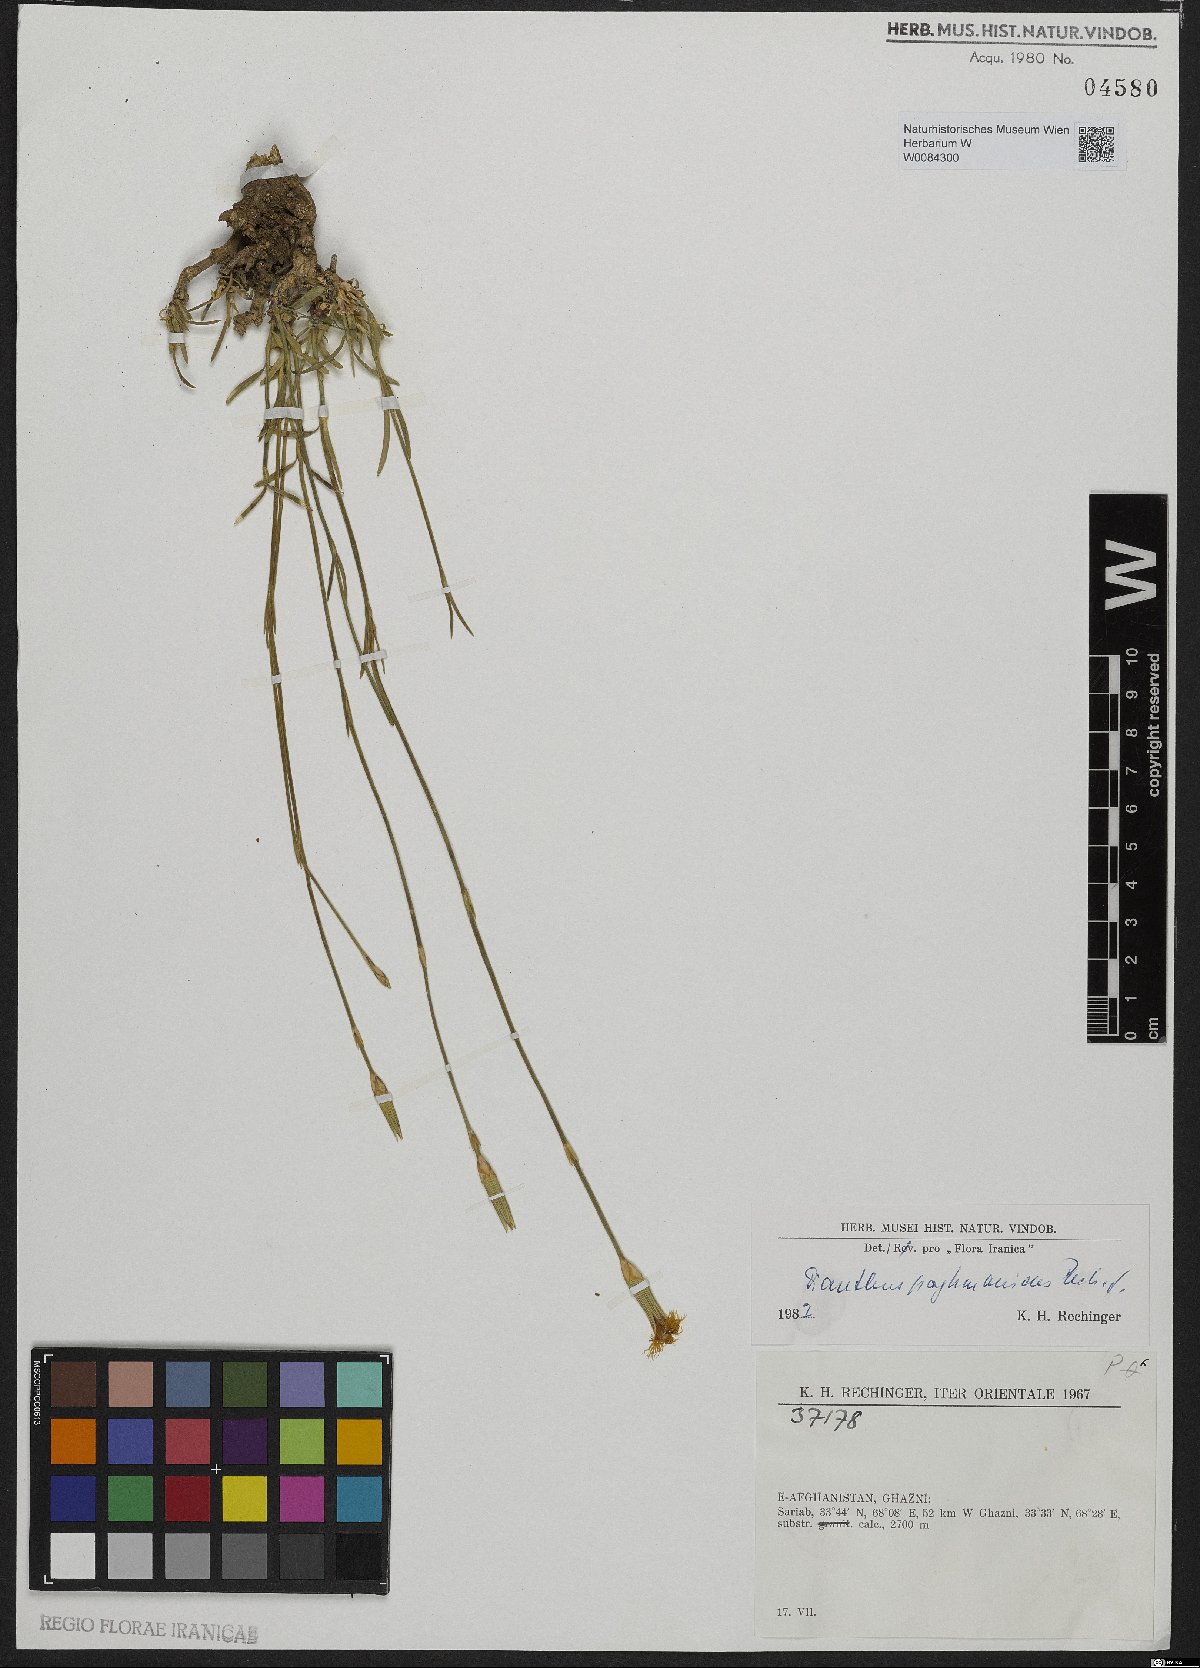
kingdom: Plantae
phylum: Tracheophyta
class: Magnoliopsida
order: Caryophyllales
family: Caryophyllaceae
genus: Dianthus
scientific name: Dianthus paghmanicus
